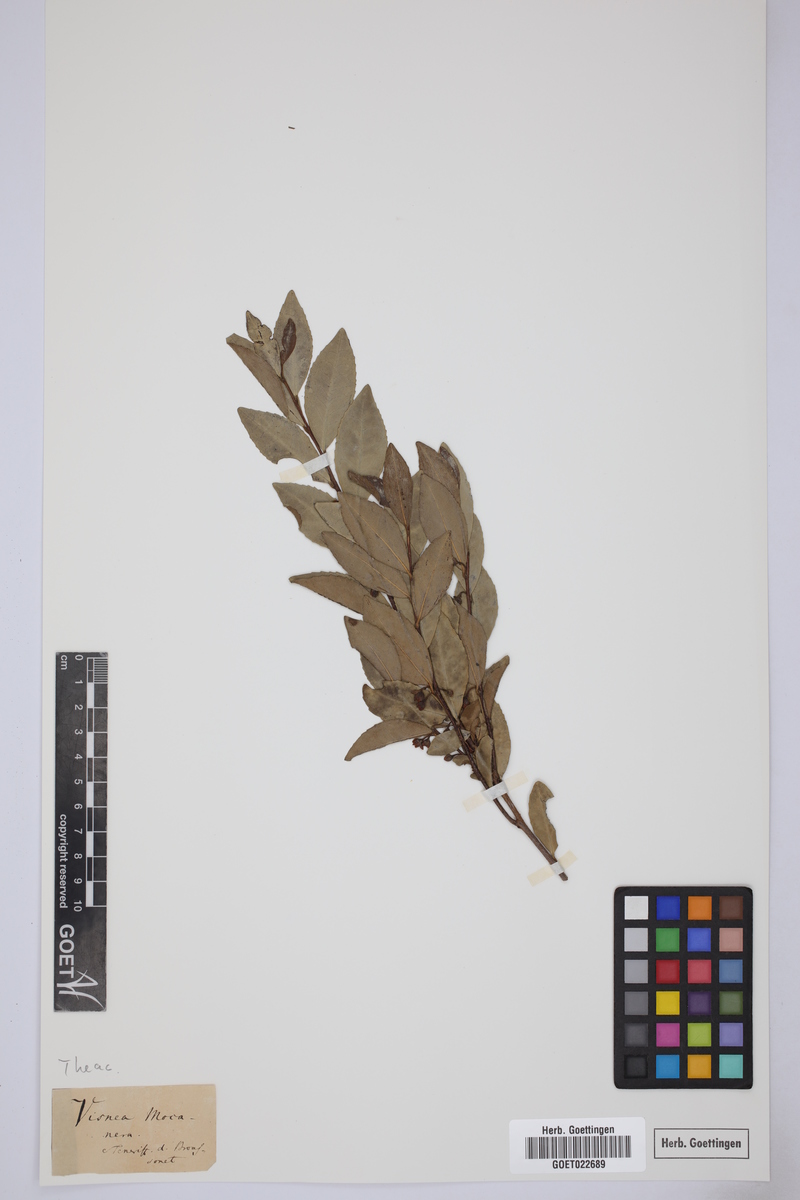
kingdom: Plantae
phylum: Tracheophyta
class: Magnoliopsida
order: Ericales
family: Pentaphylacaceae
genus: Visnea
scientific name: Visnea mocanera
